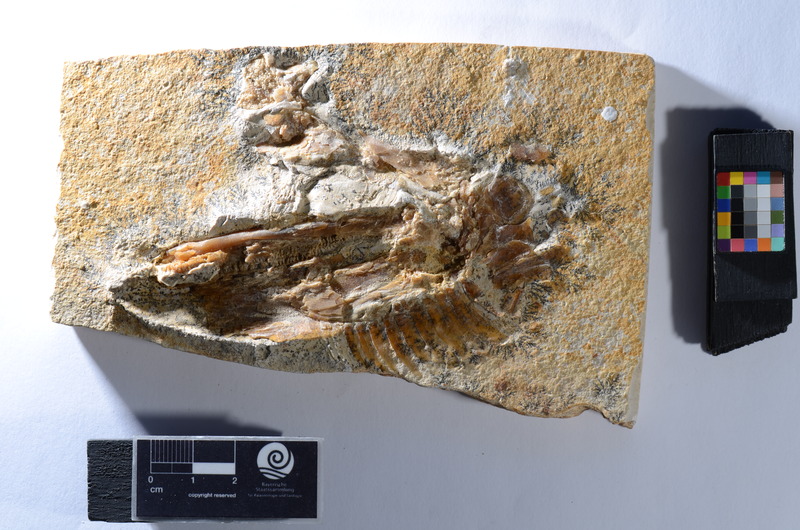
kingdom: Animalia
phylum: Chordata
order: Amiiformes
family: Caturidae
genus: Caturus
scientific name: Caturus
